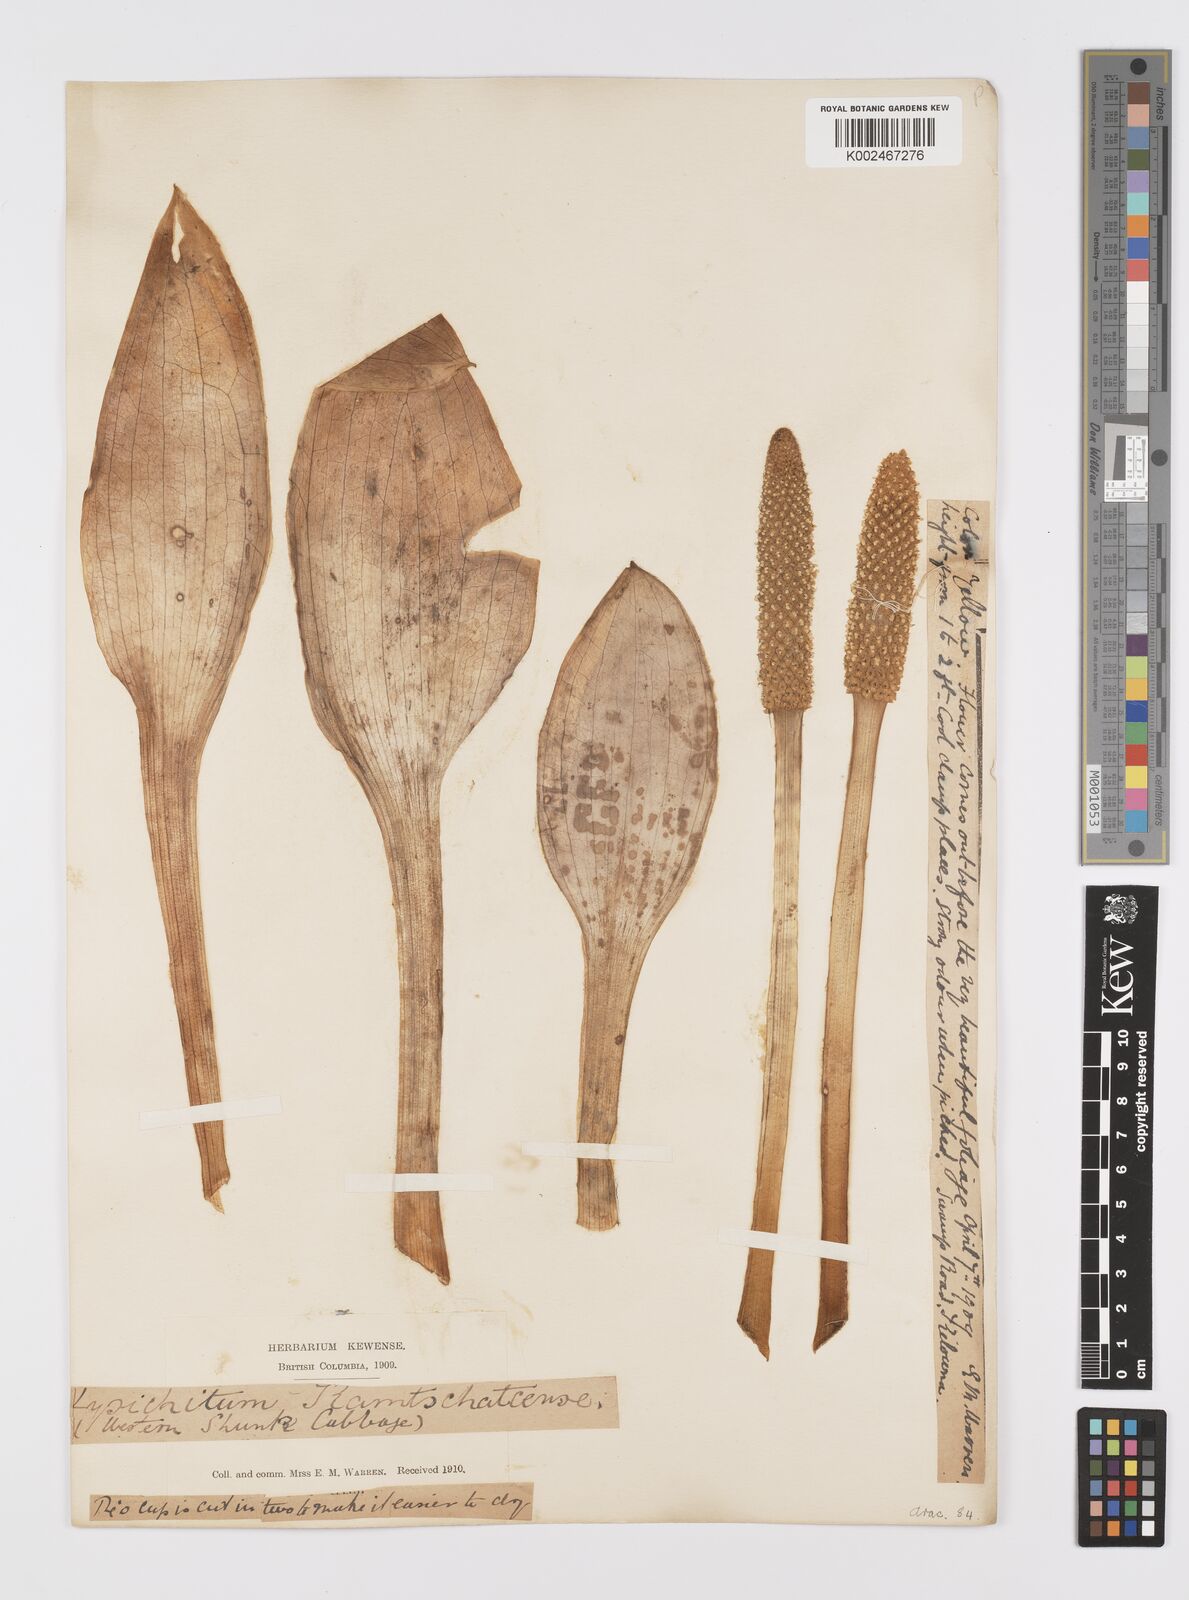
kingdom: Plantae
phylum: Tracheophyta
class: Liliopsida
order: Alismatales
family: Araceae
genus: Lysichiton
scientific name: Lysichiton americanus
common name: American skunk cabbage
